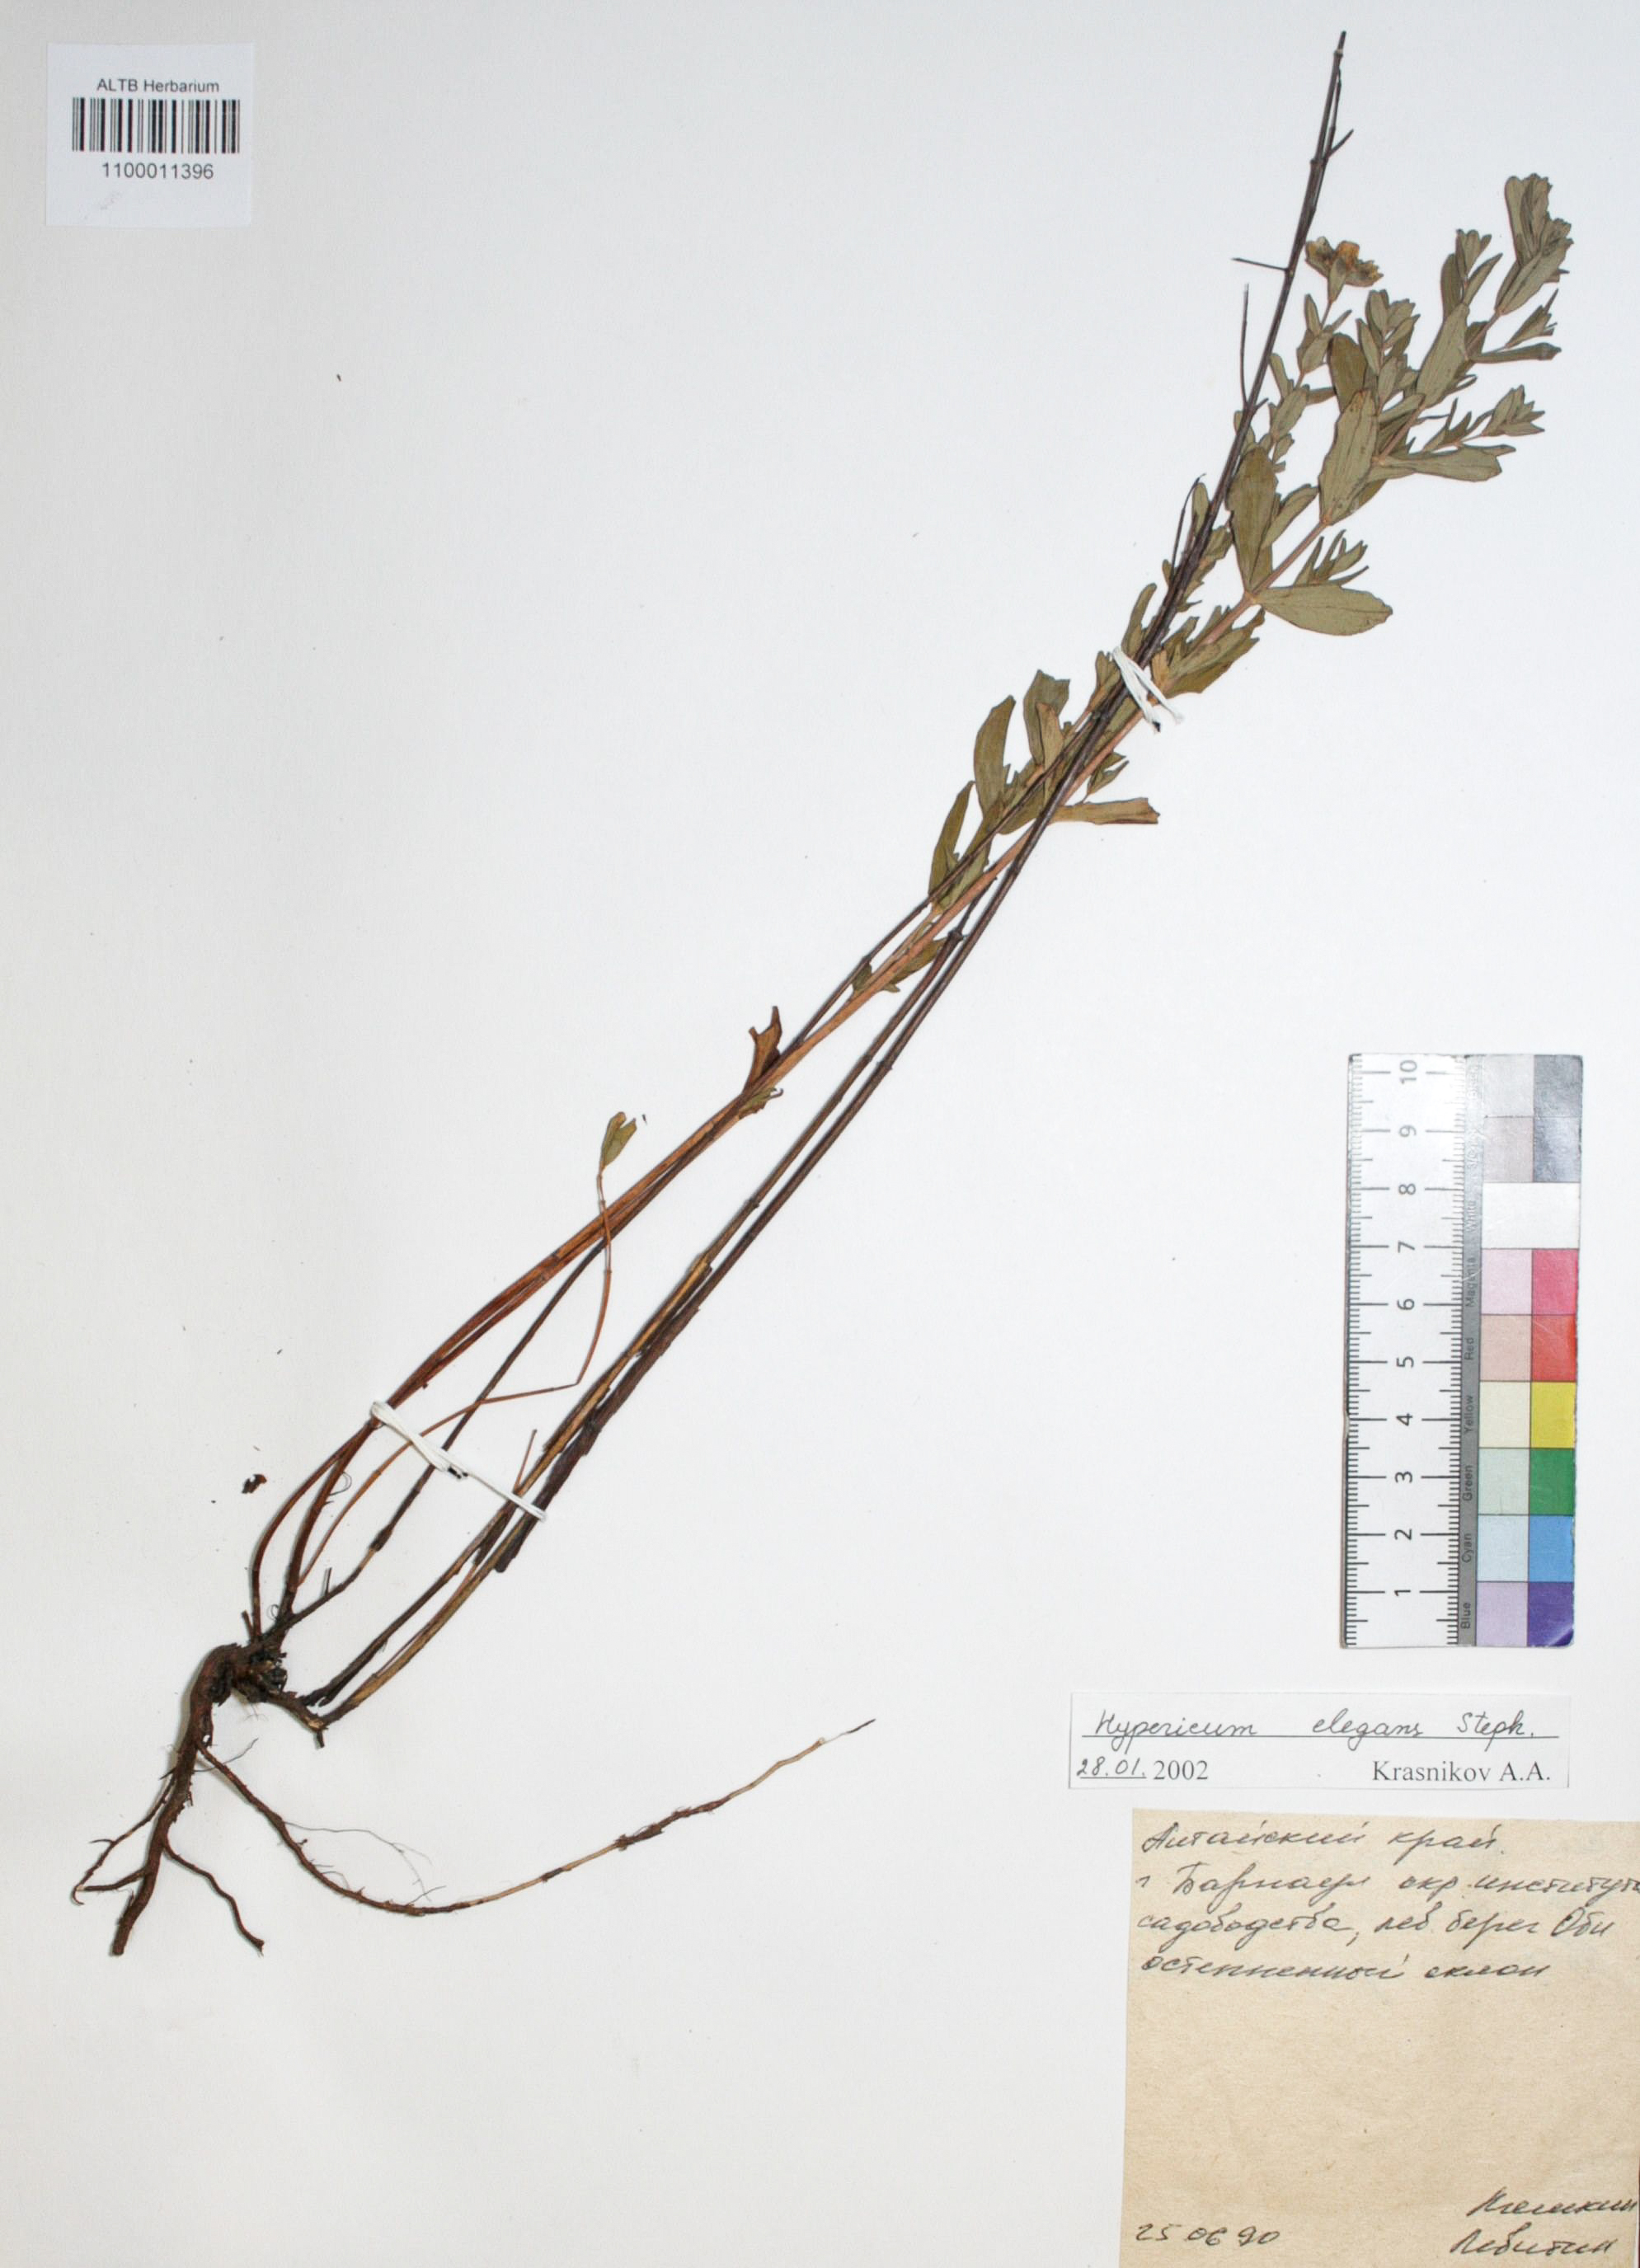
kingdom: Plantae
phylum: Tracheophyta
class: Magnoliopsida
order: Malpighiales
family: Hypericaceae
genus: Hypericum
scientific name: Hypericum elegans
